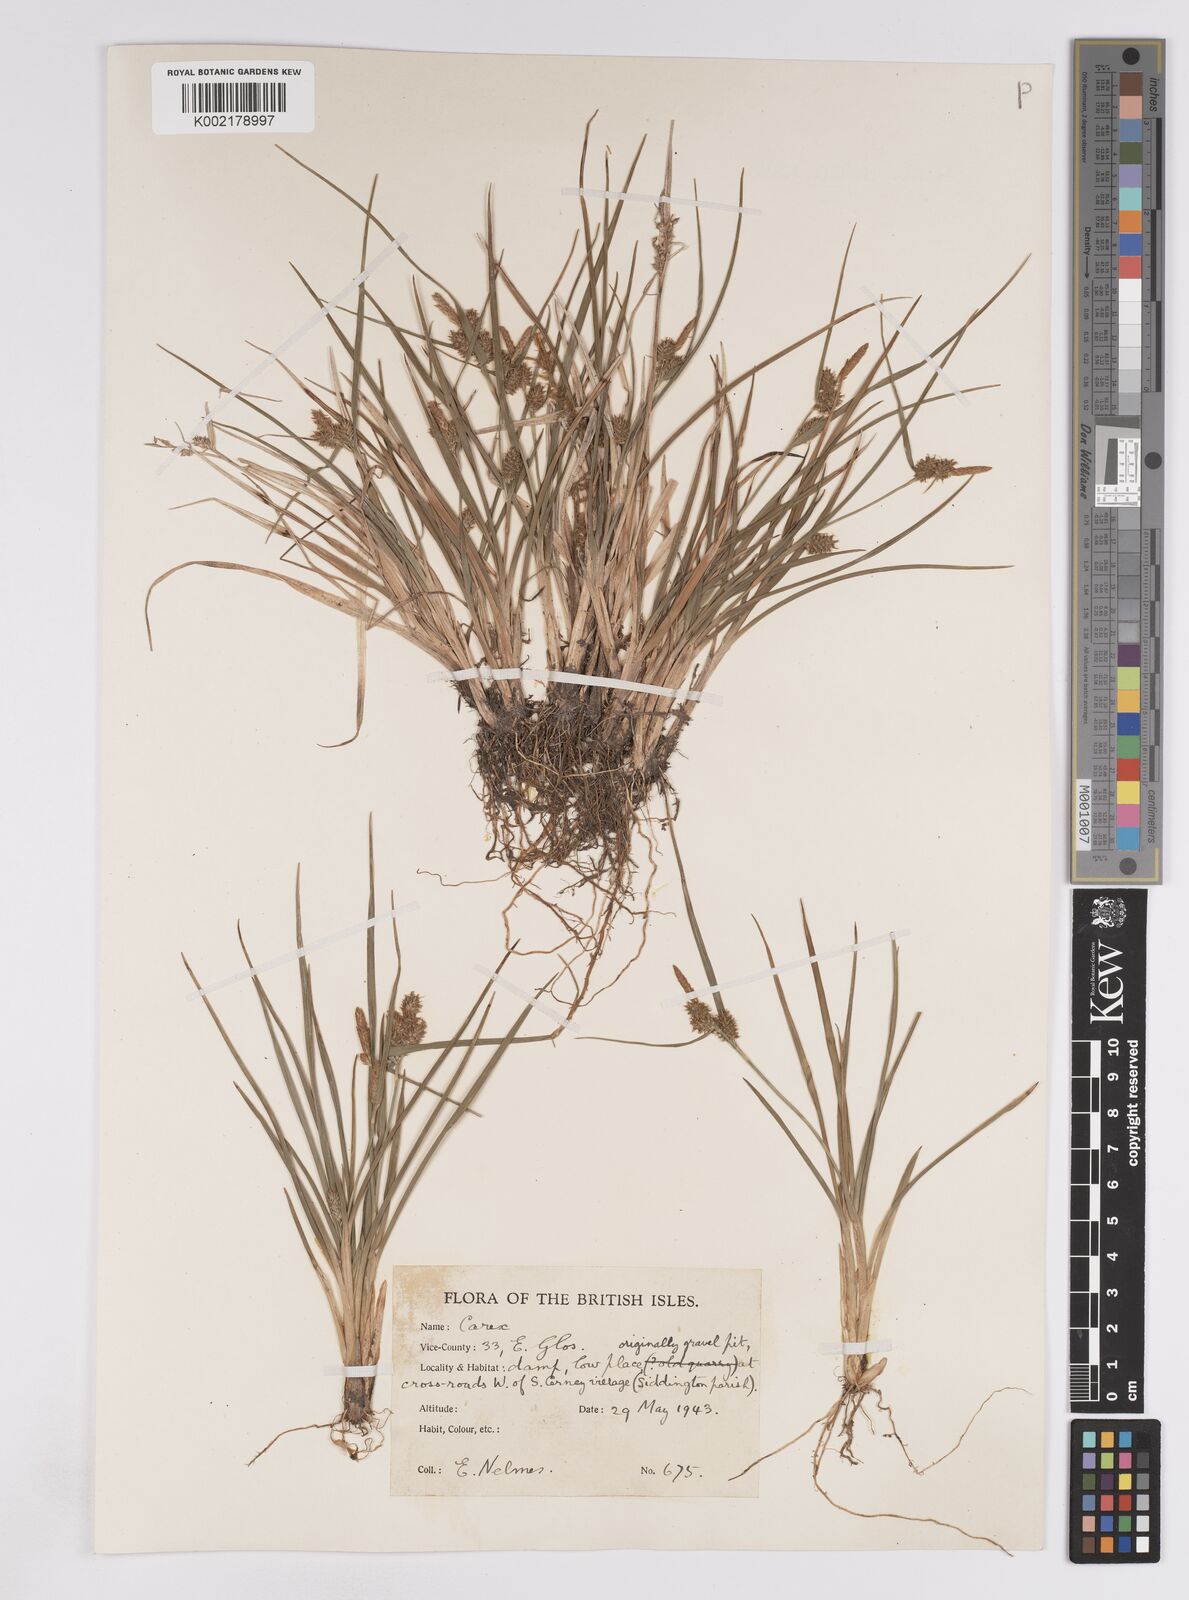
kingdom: Plantae
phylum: Tracheophyta
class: Liliopsida
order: Poales
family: Cyperaceae
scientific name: Cyperaceae
